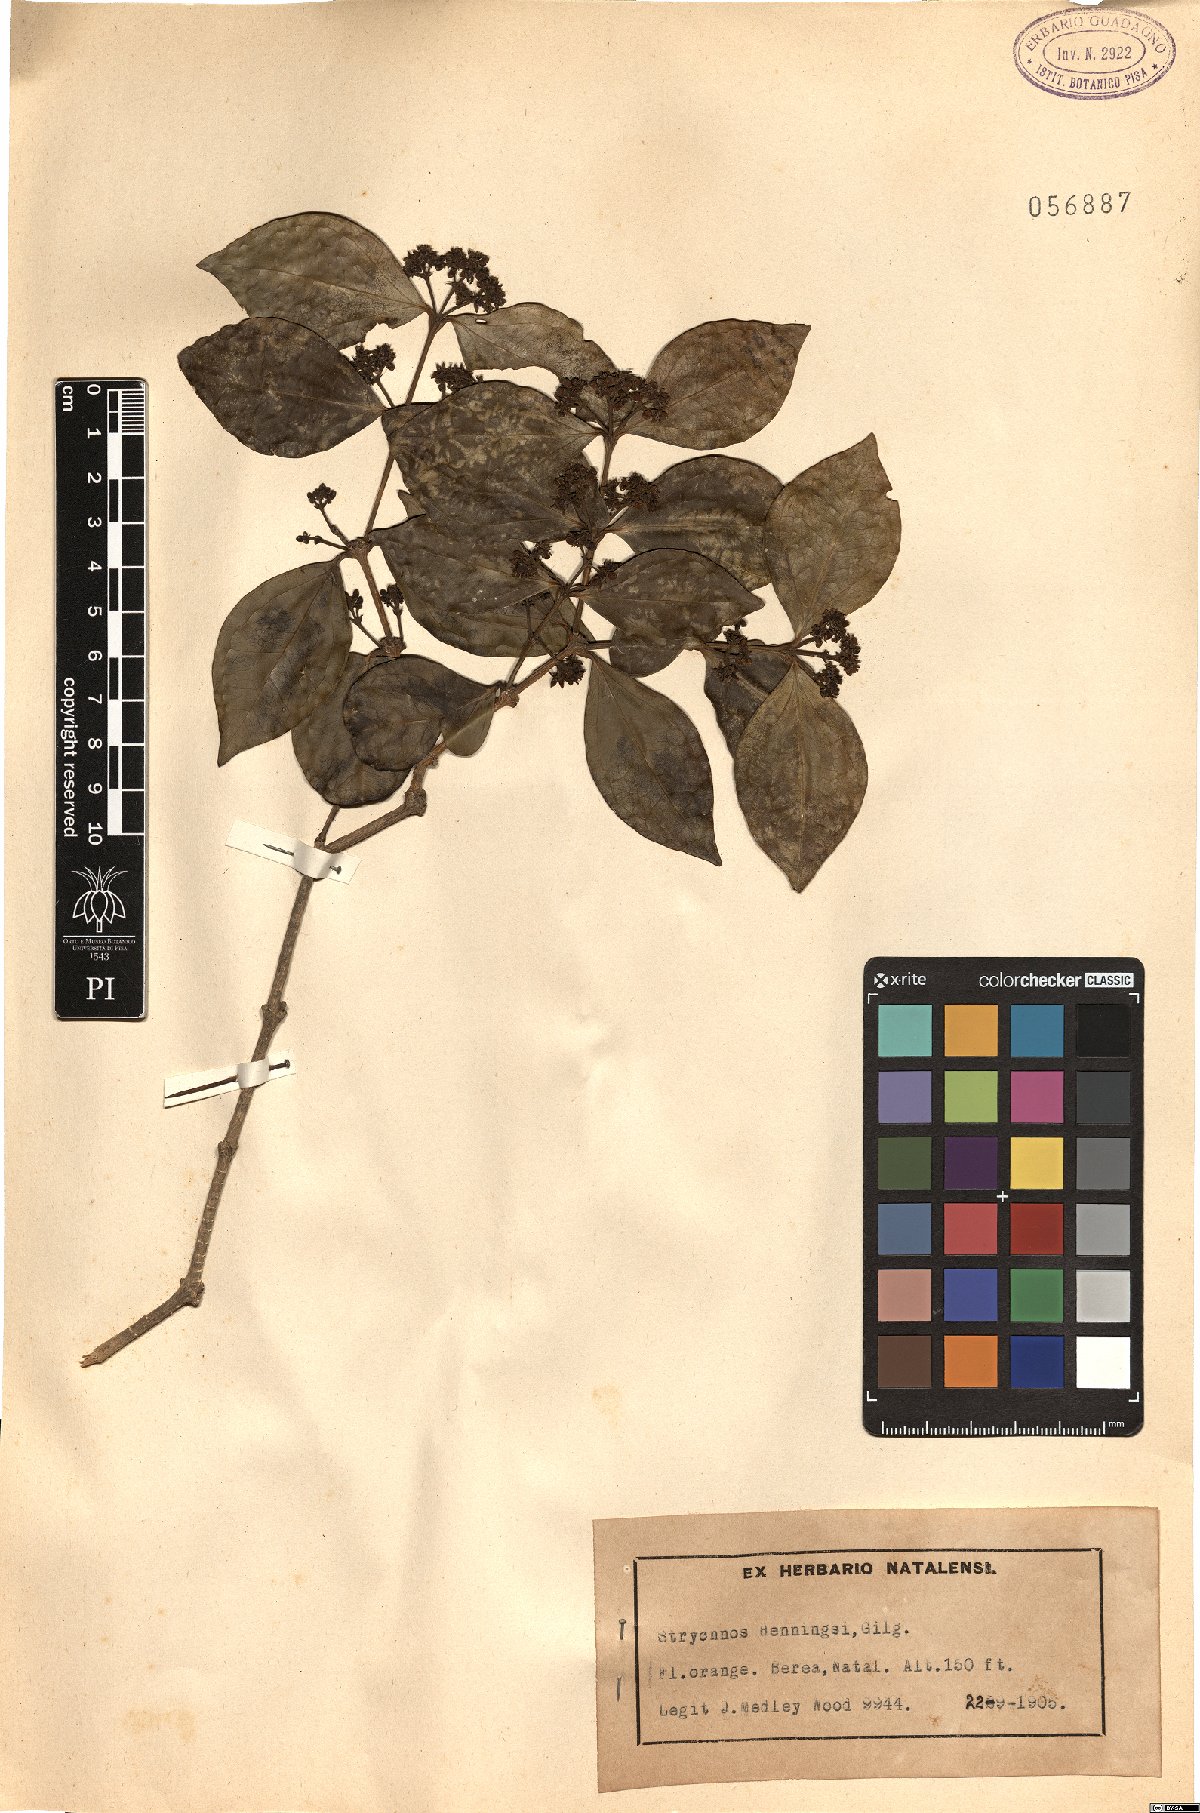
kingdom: Plantae
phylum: Tracheophyta
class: Magnoliopsida
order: Gentianales
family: Loganiaceae
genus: Strychnos
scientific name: Strychnos henningsii
